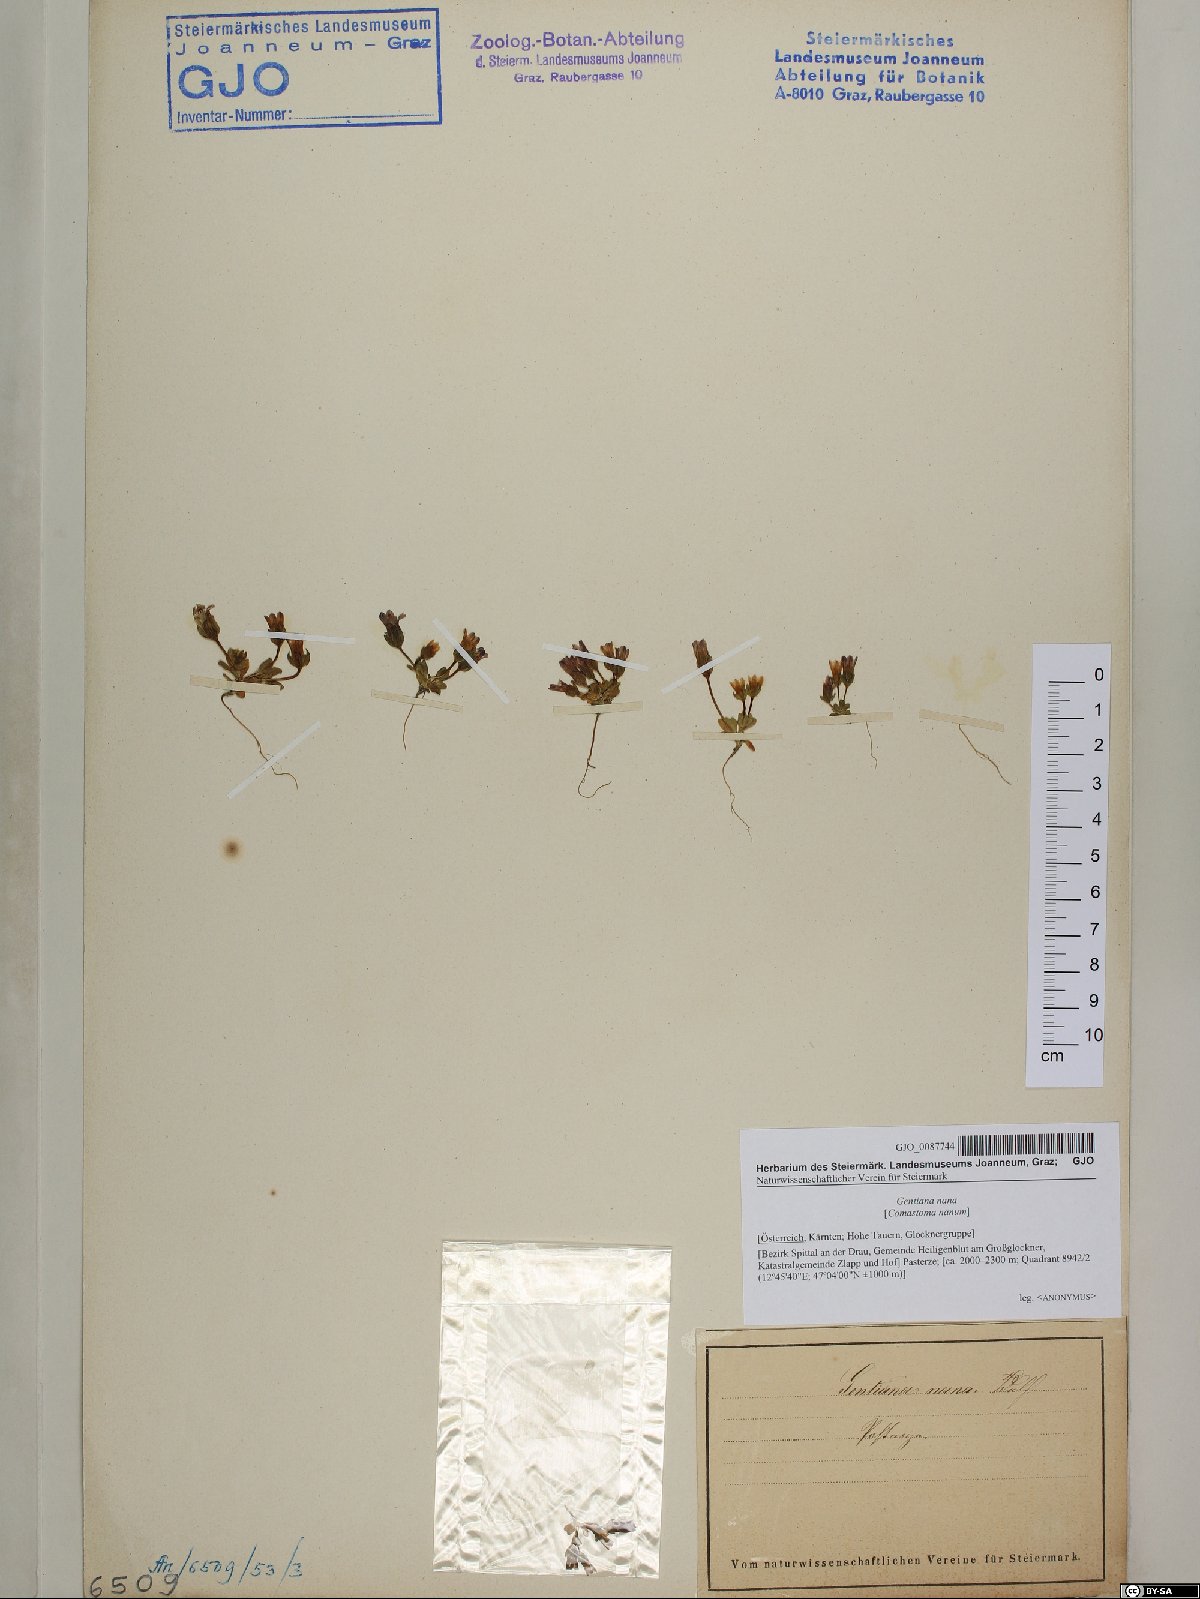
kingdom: Plantae
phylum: Tracheophyta
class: Magnoliopsida
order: Gentianales
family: Gentianaceae
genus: Comastoma
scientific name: Comastoma nanum
